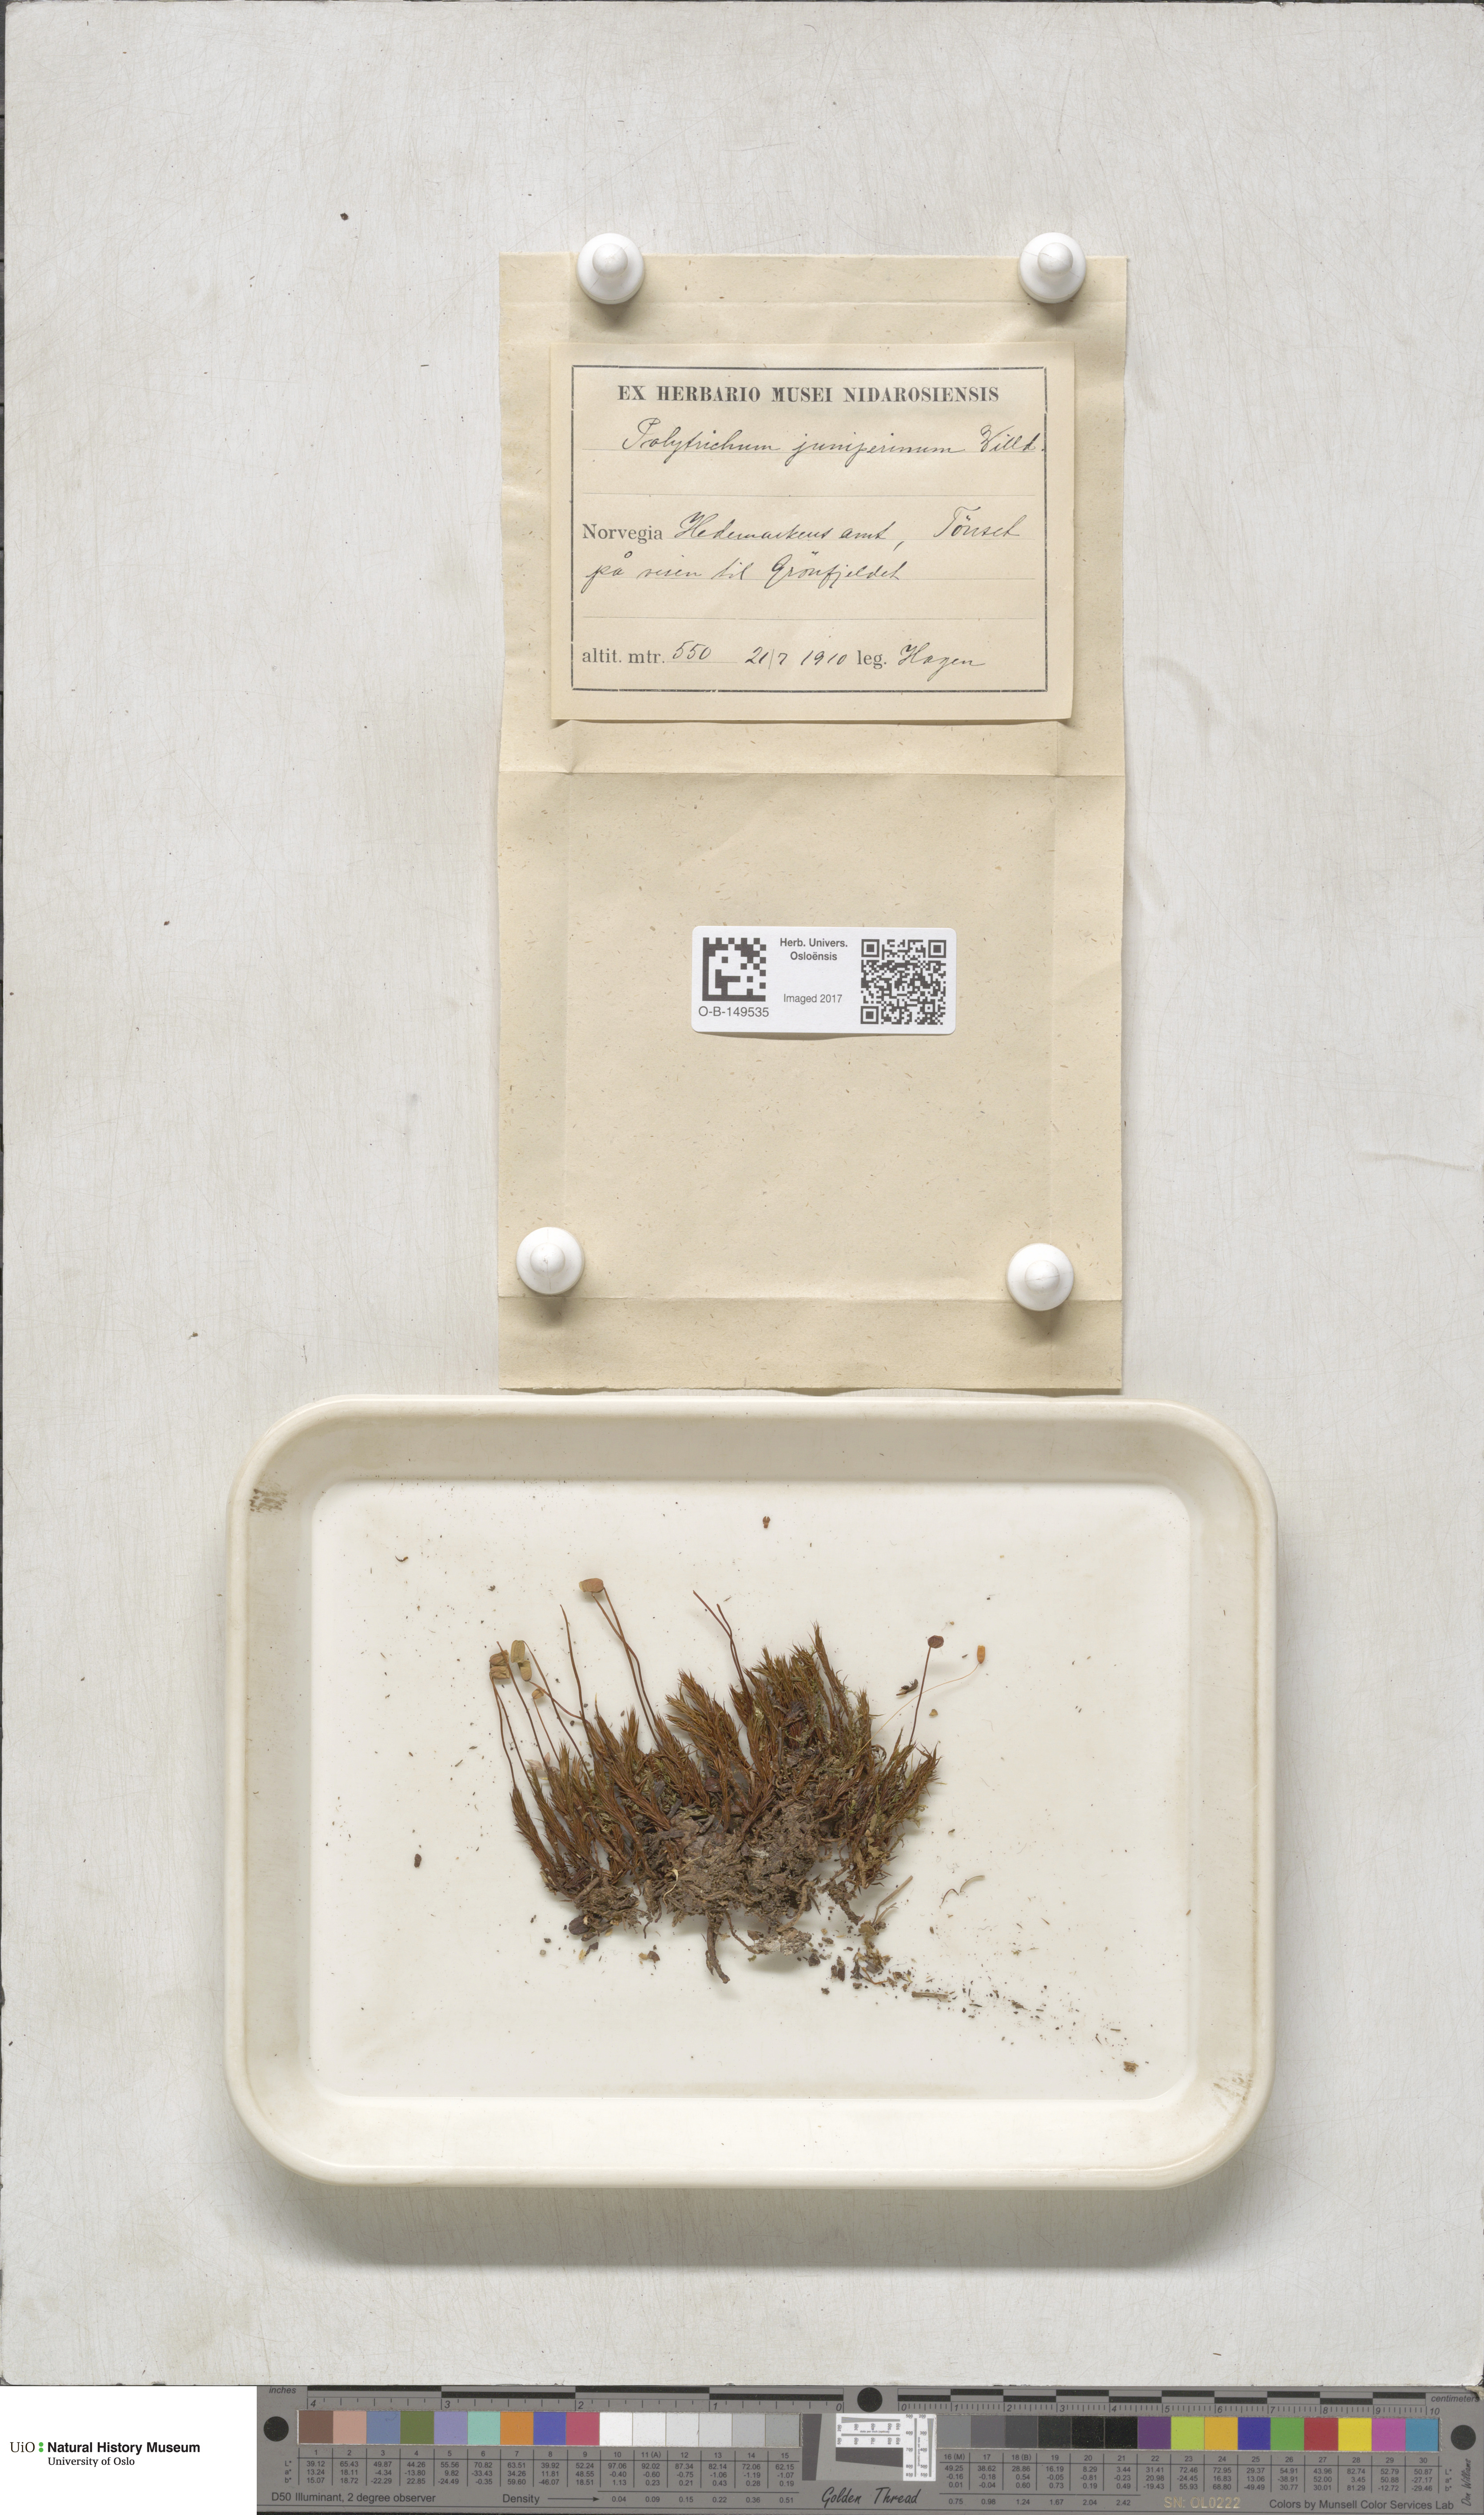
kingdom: Plantae
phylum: Bryophyta
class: Polytrichopsida
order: Polytrichales
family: Polytrichaceae
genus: Polytrichum
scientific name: Polytrichum juniperinum
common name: Juniper haircap moss
